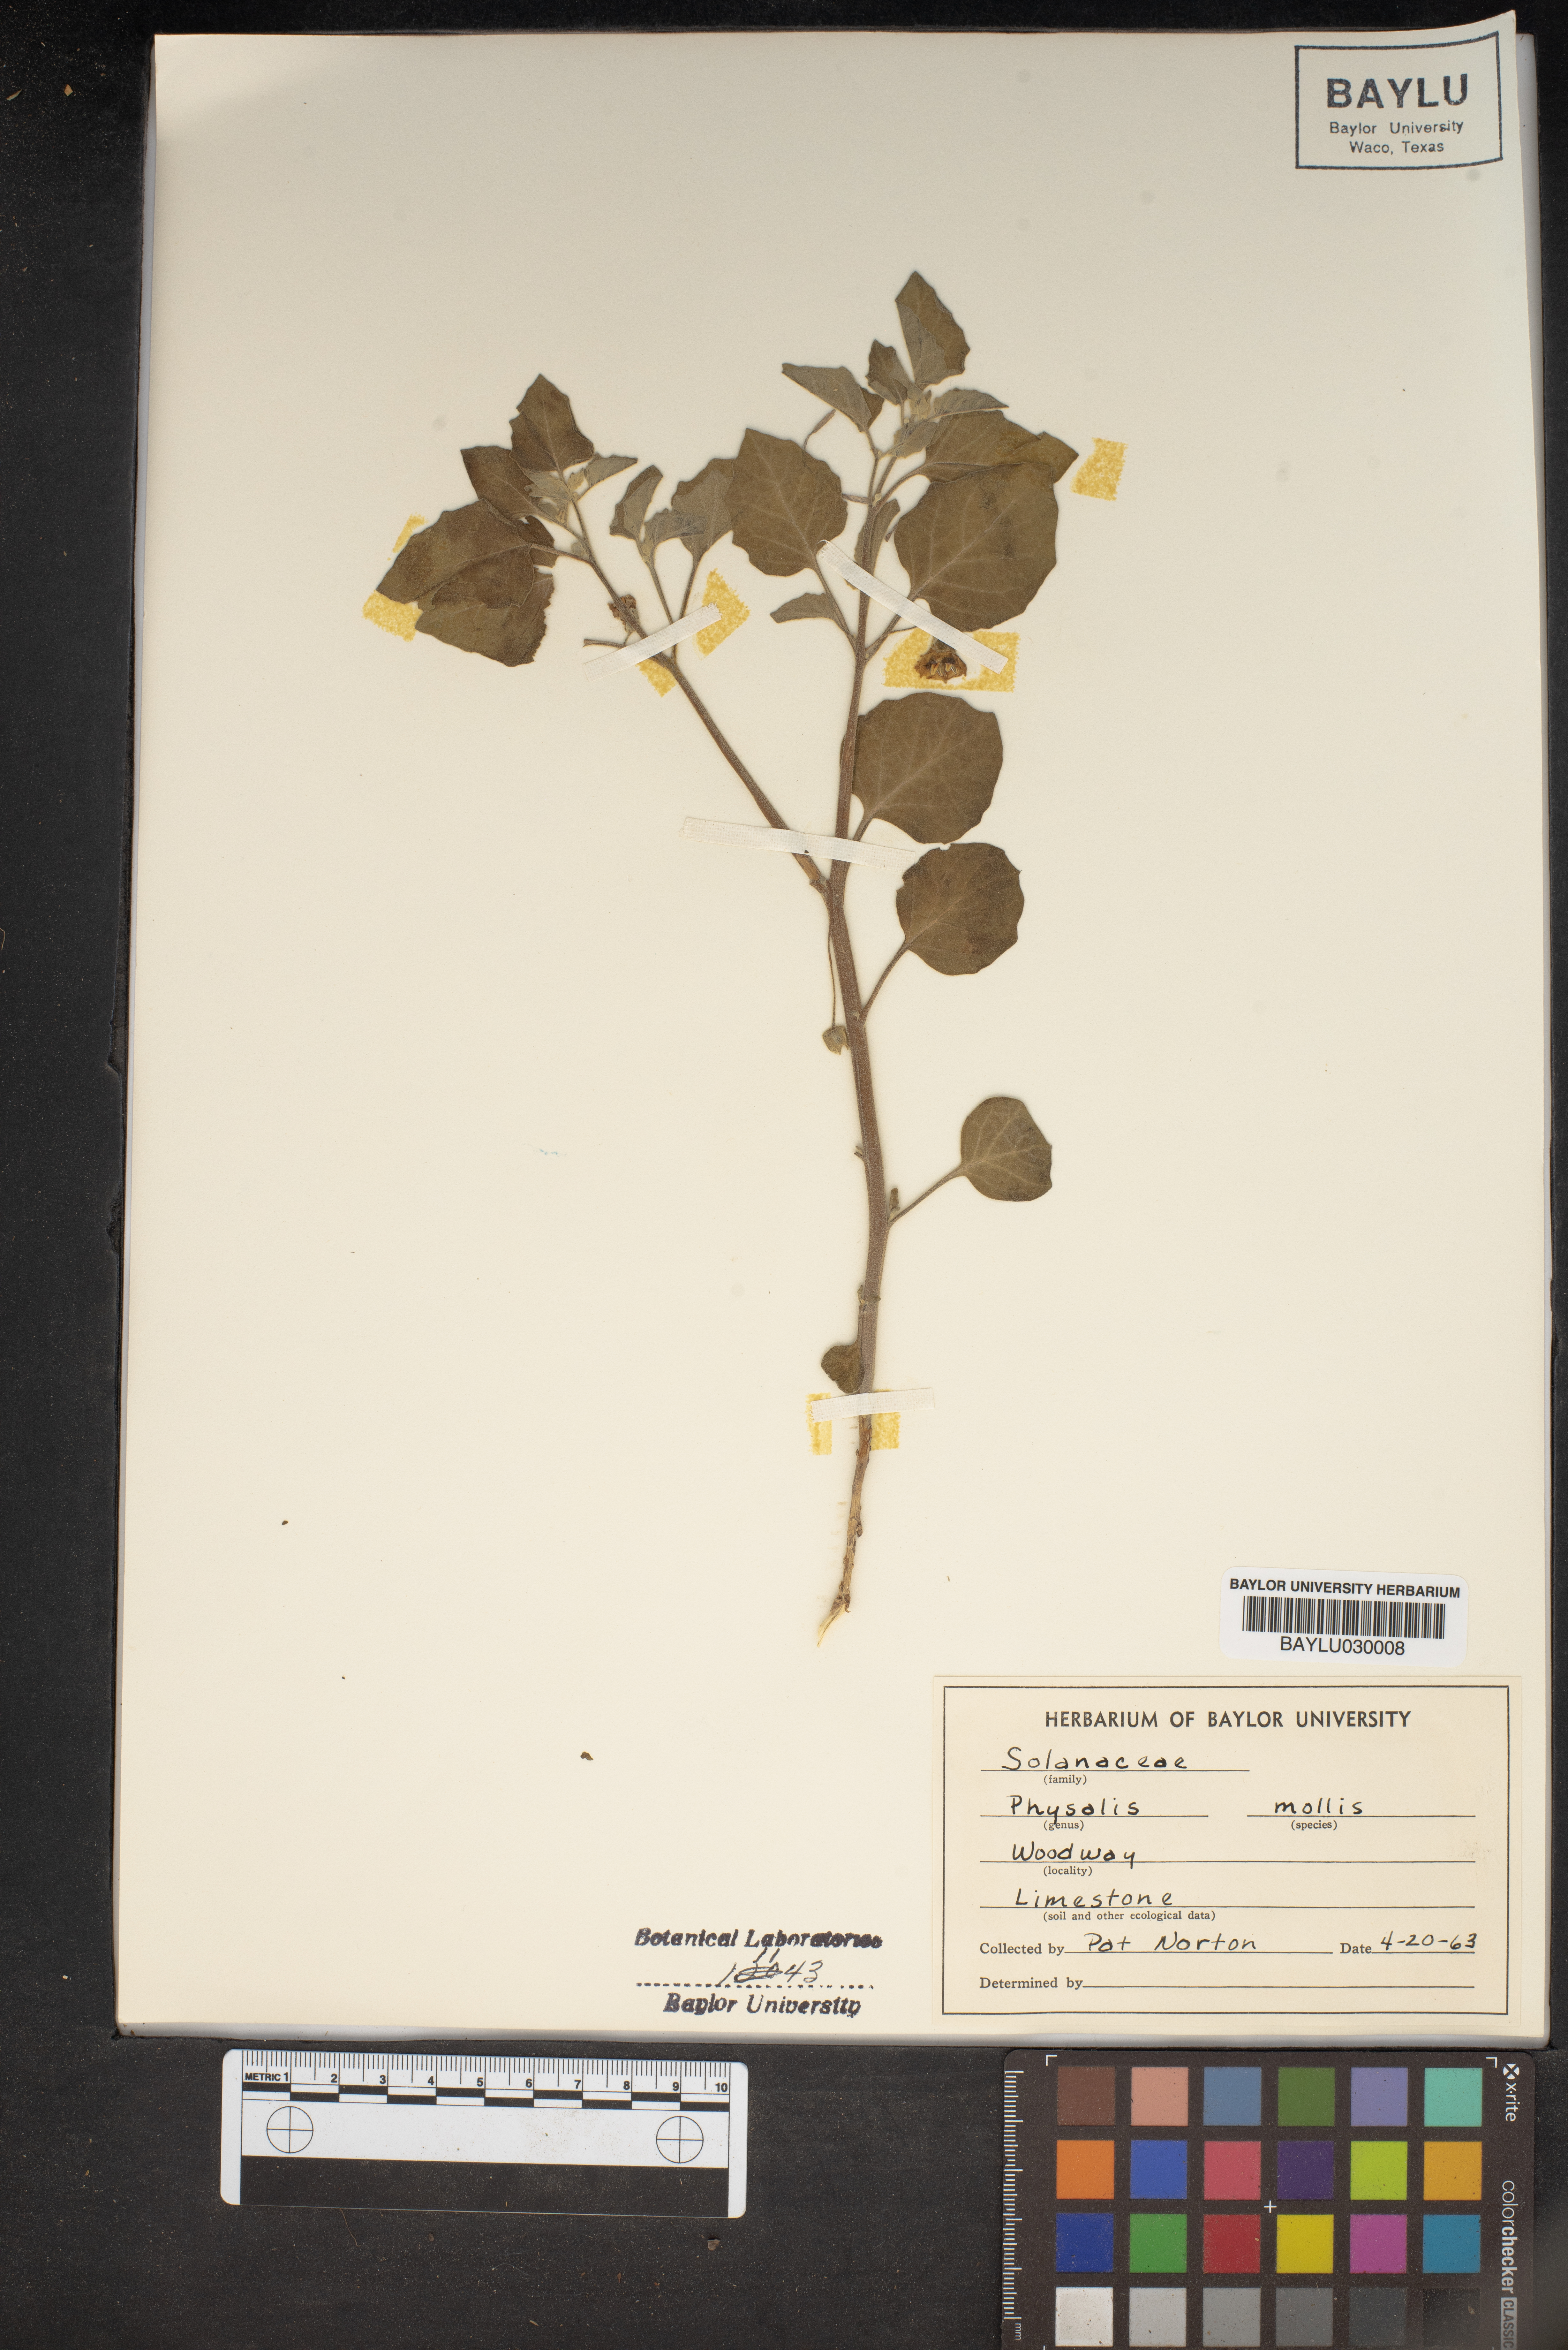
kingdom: Plantae
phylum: Tracheophyta
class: Magnoliopsida
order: Solanales
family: Solanaceae
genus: Physalis
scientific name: Physalis mollis
